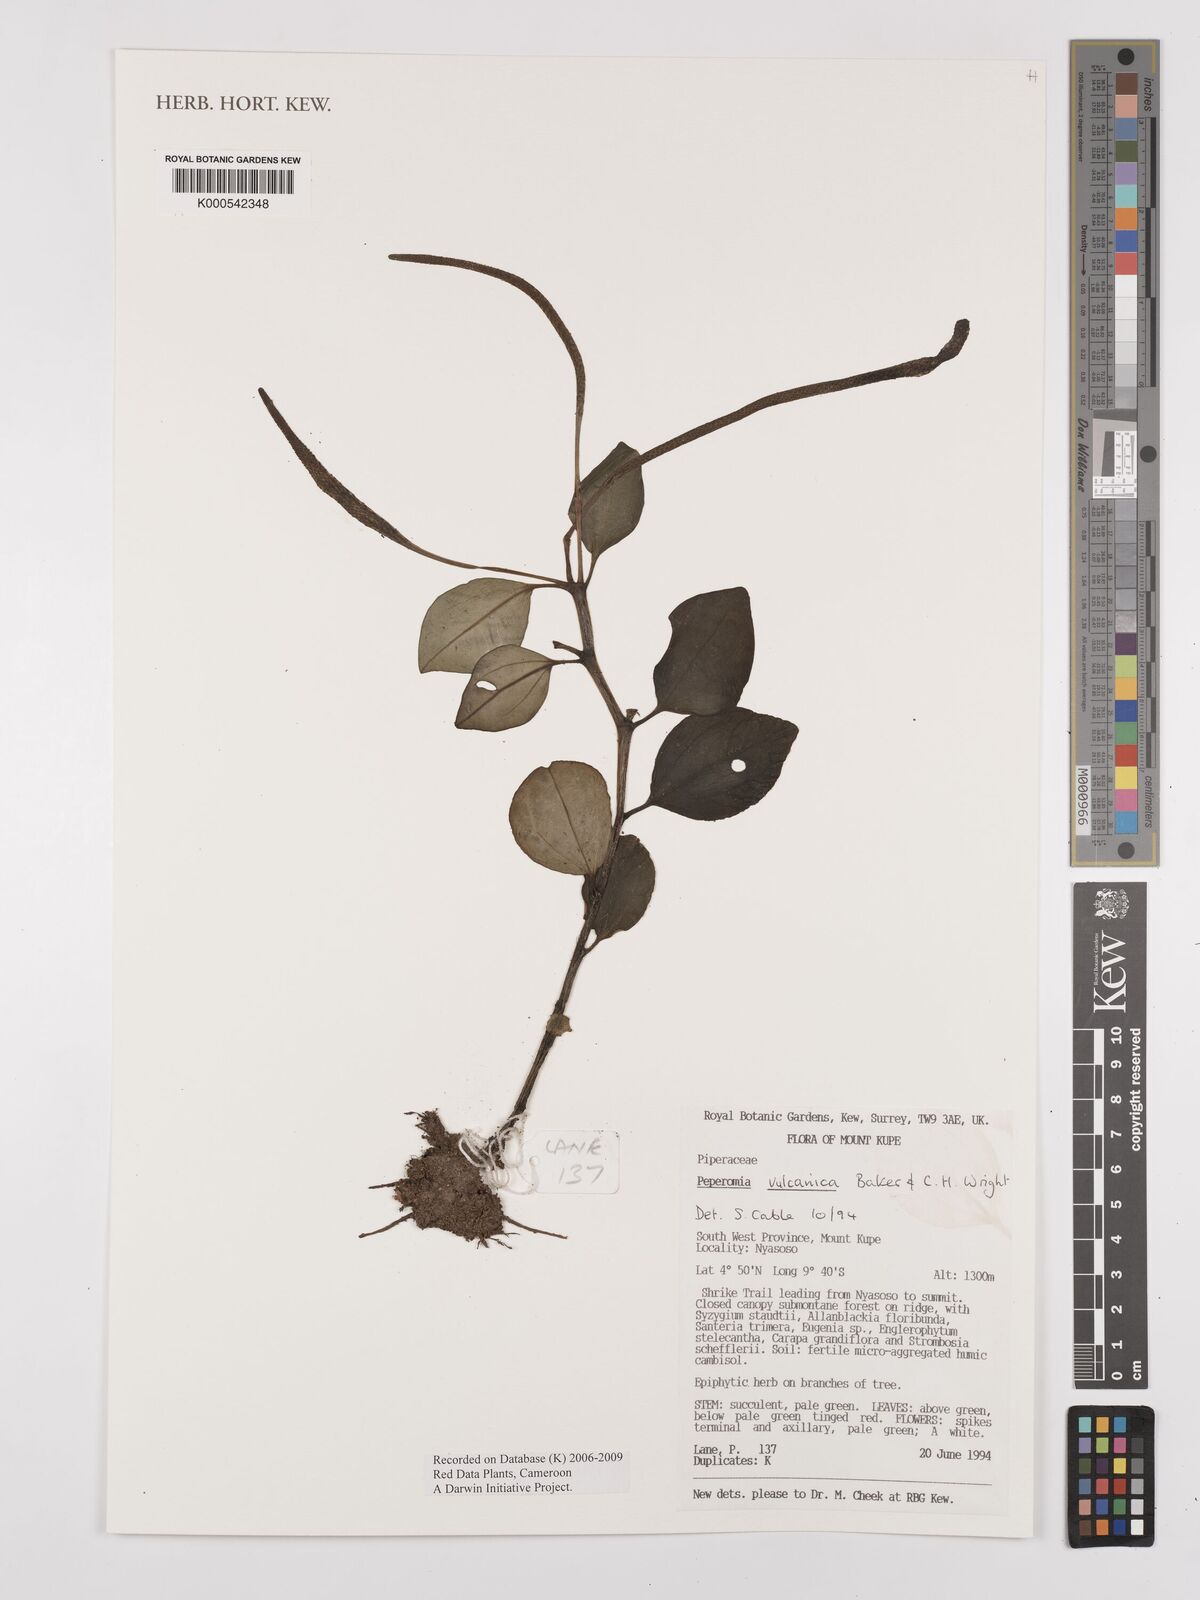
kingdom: Plantae
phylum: Tracheophyta
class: Magnoliopsida
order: Piperales
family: Piperaceae
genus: Peperomia
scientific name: Peperomia vulcanica
